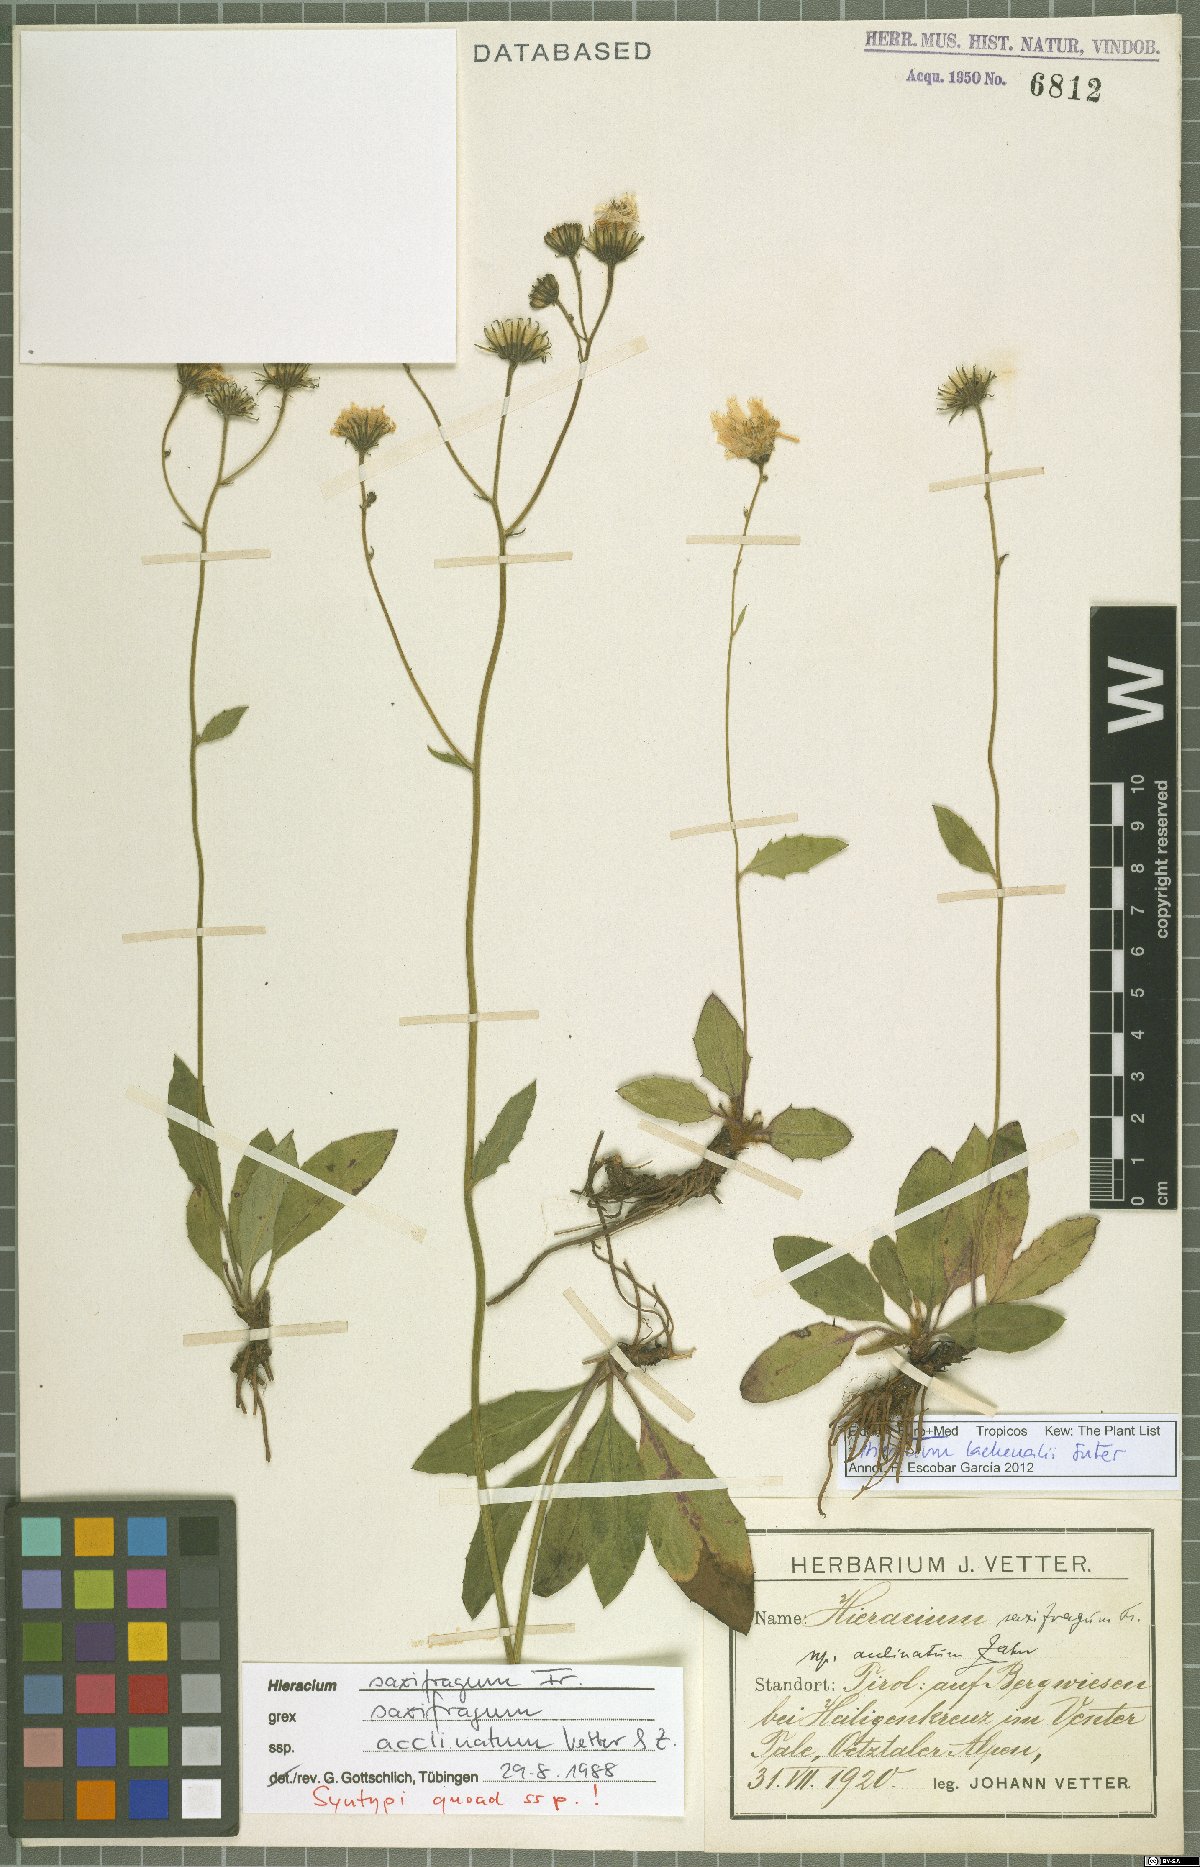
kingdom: Plantae
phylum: Tracheophyta
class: Magnoliopsida
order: Asterales
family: Asteraceae
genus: Hieracium
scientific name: Hieracium lachenalii
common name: Common hawkweed
